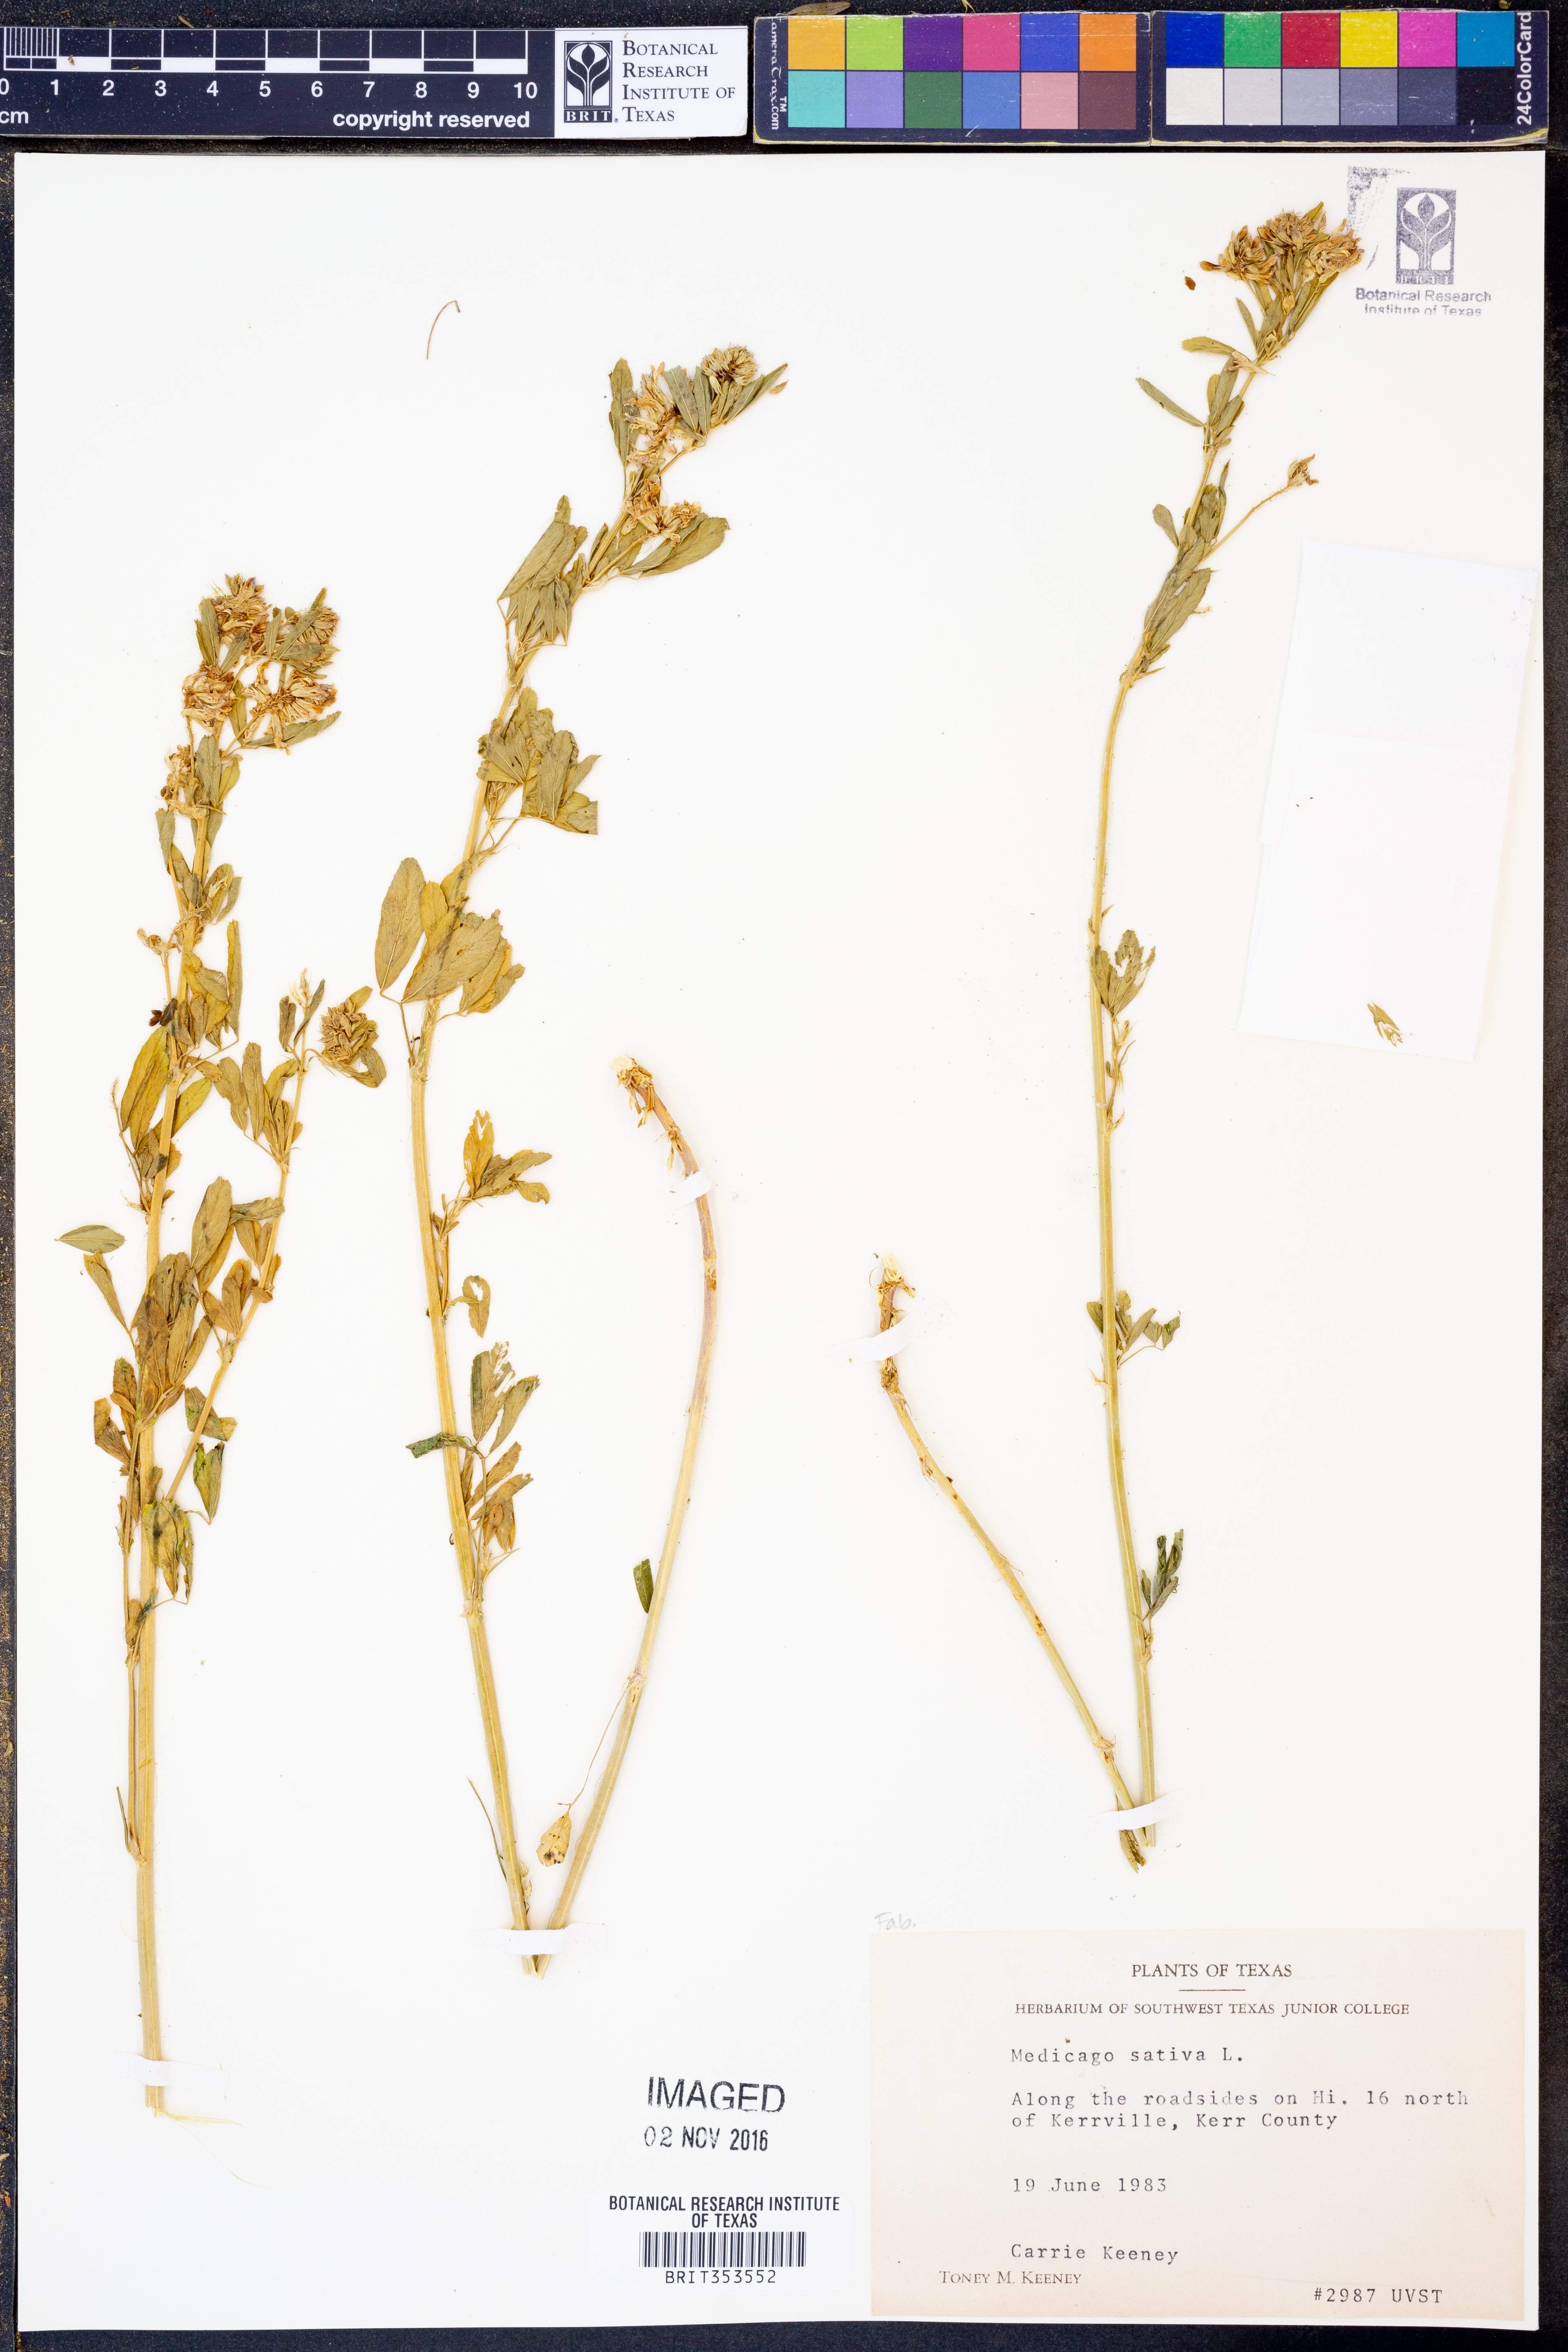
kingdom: Plantae
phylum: Tracheophyta
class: Magnoliopsida
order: Fabales
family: Fabaceae
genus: Medicago
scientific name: Medicago sativa
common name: Alfalfa
